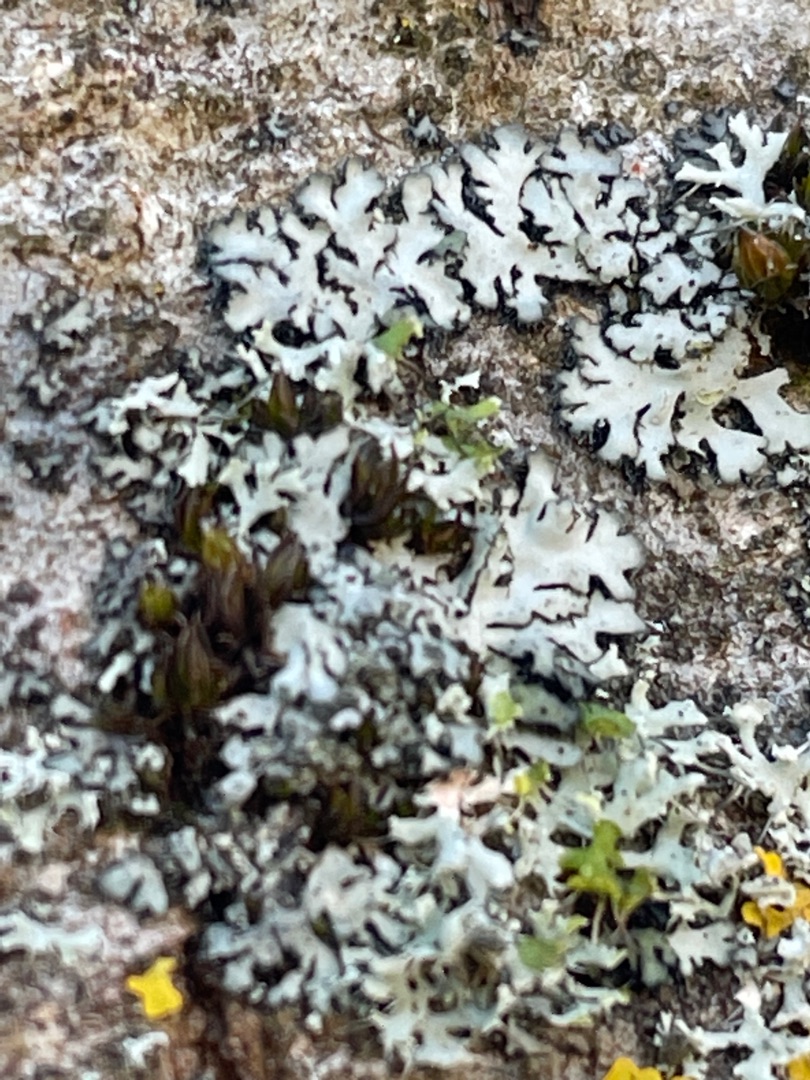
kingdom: Fungi
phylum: Ascomycota
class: Lecanoromycetes
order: Caliciales
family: Physciaceae
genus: Phaeophyscia
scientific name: Phaeophyscia orbicularis
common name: Grågrøn rosetlav
